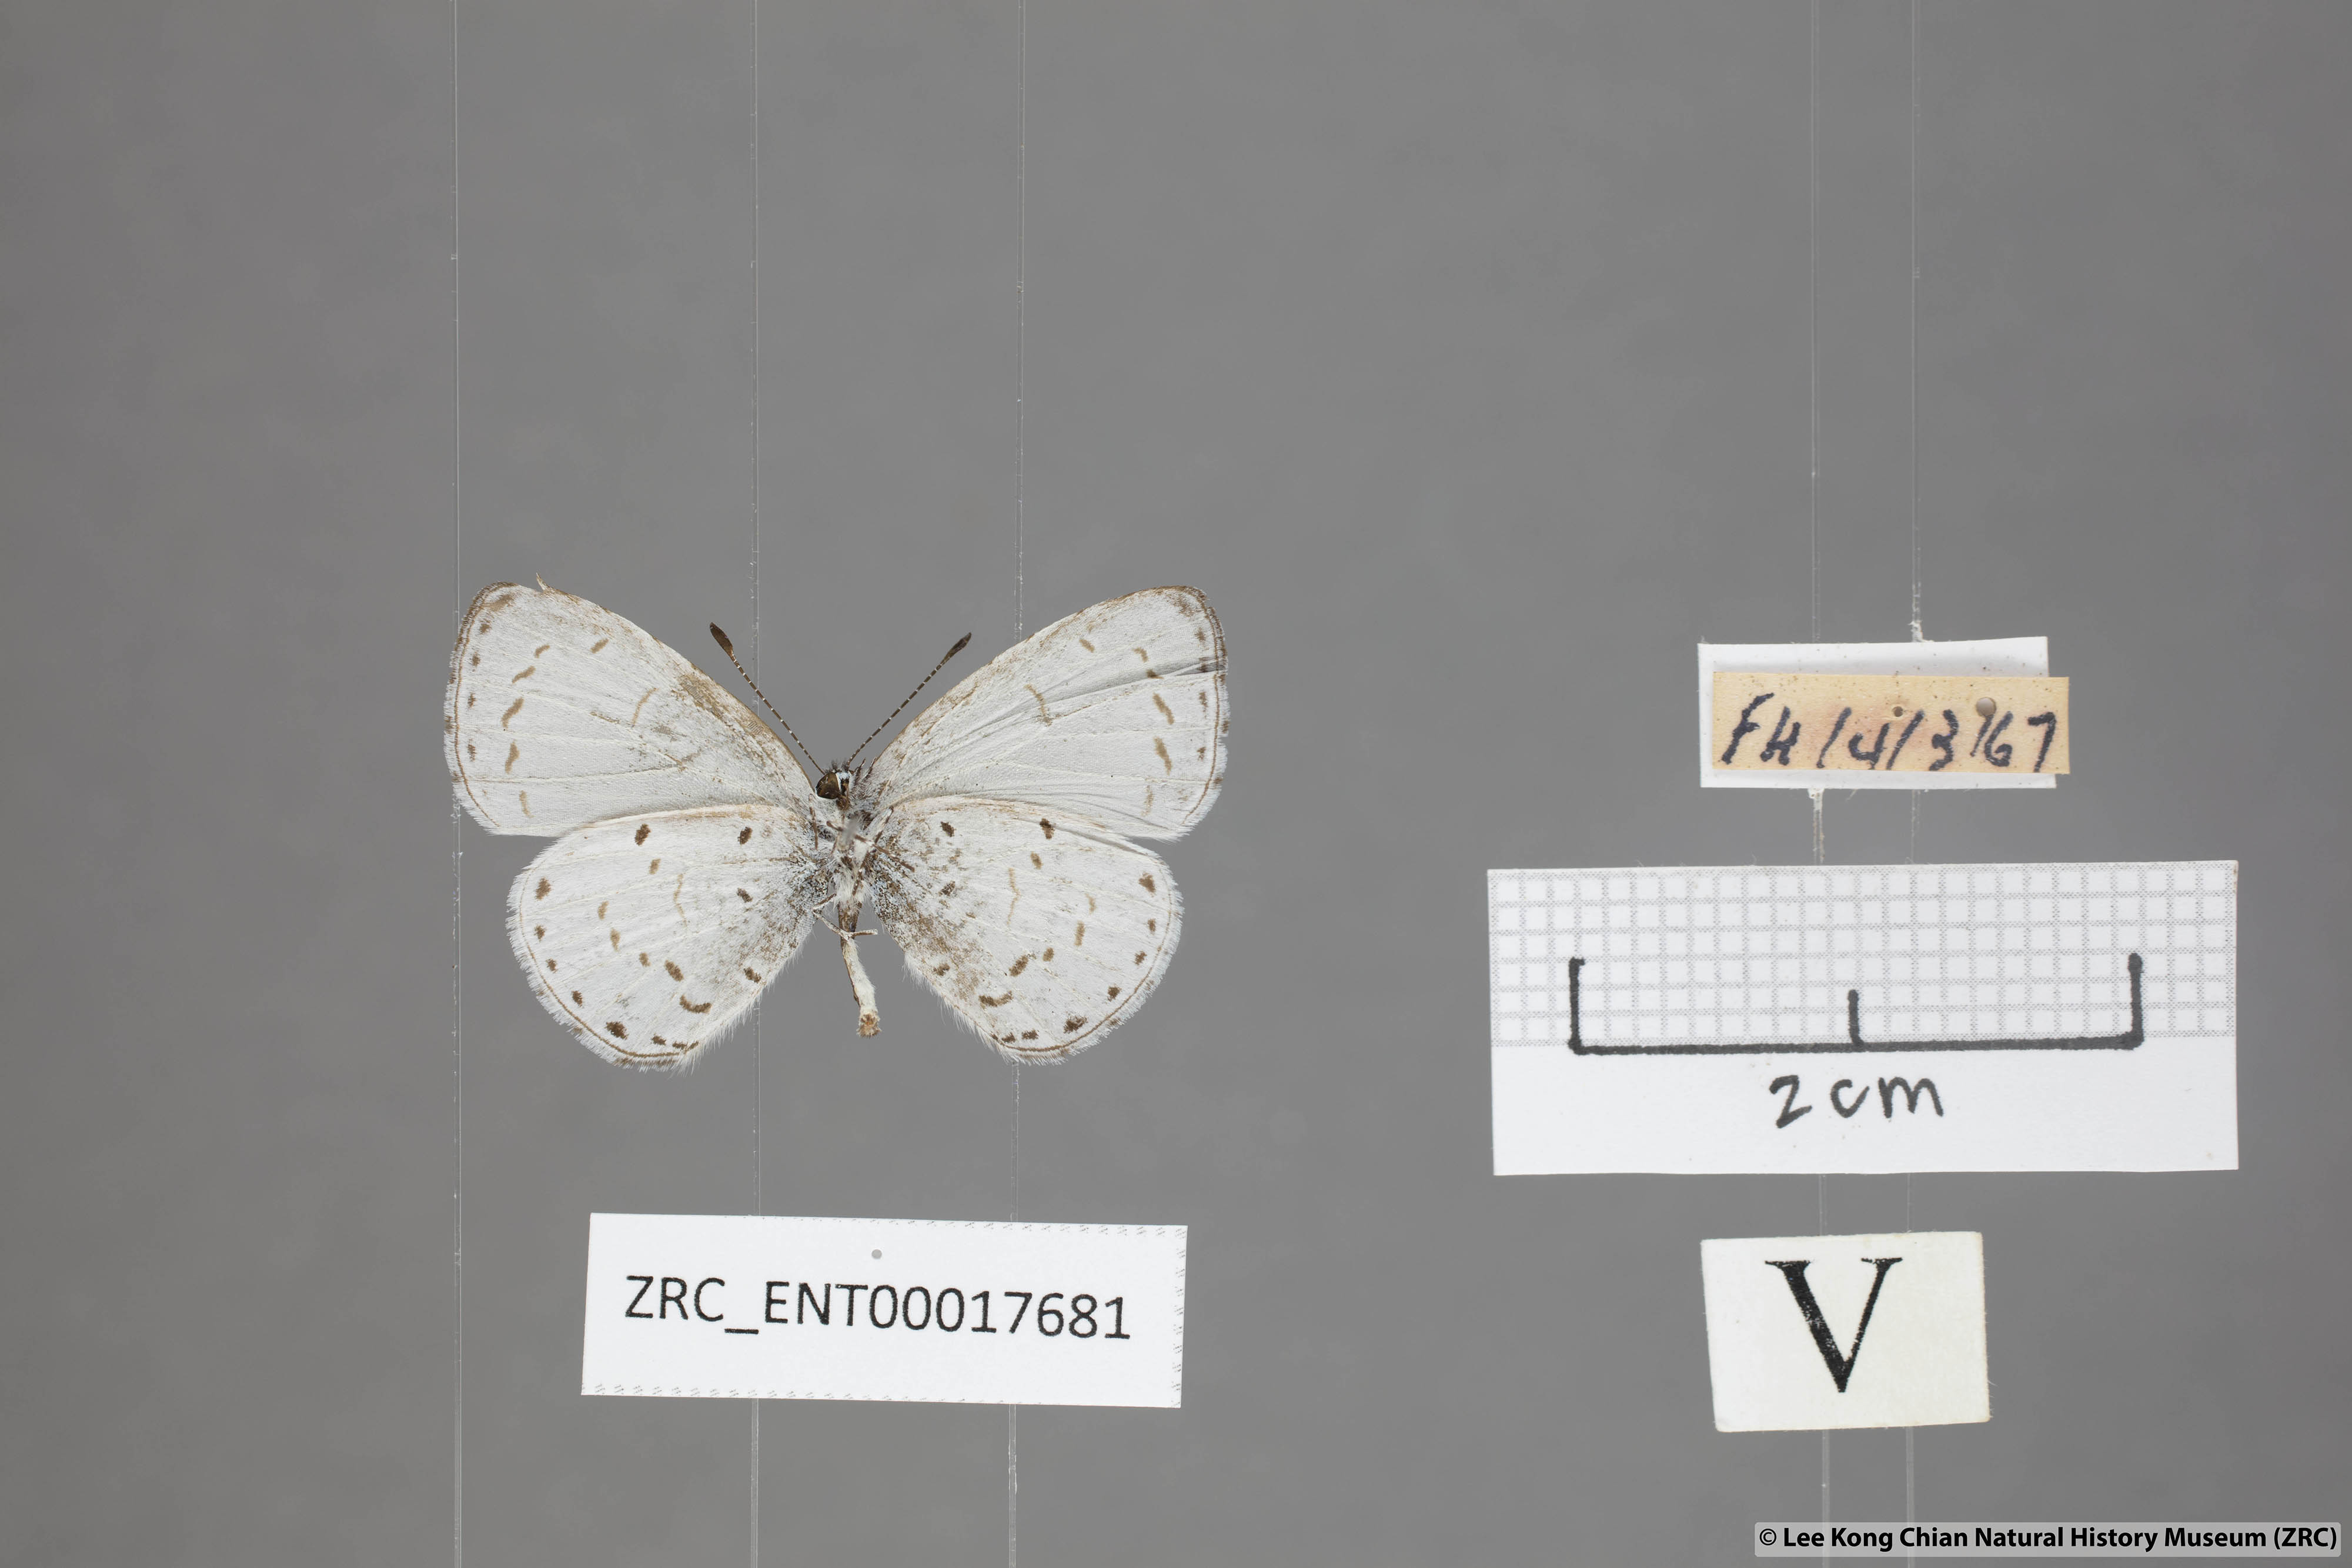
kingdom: Animalia
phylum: Arthropoda
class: Insecta
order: Lepidoptera
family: Lycaenidae
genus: Udara
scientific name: Udara camenae
